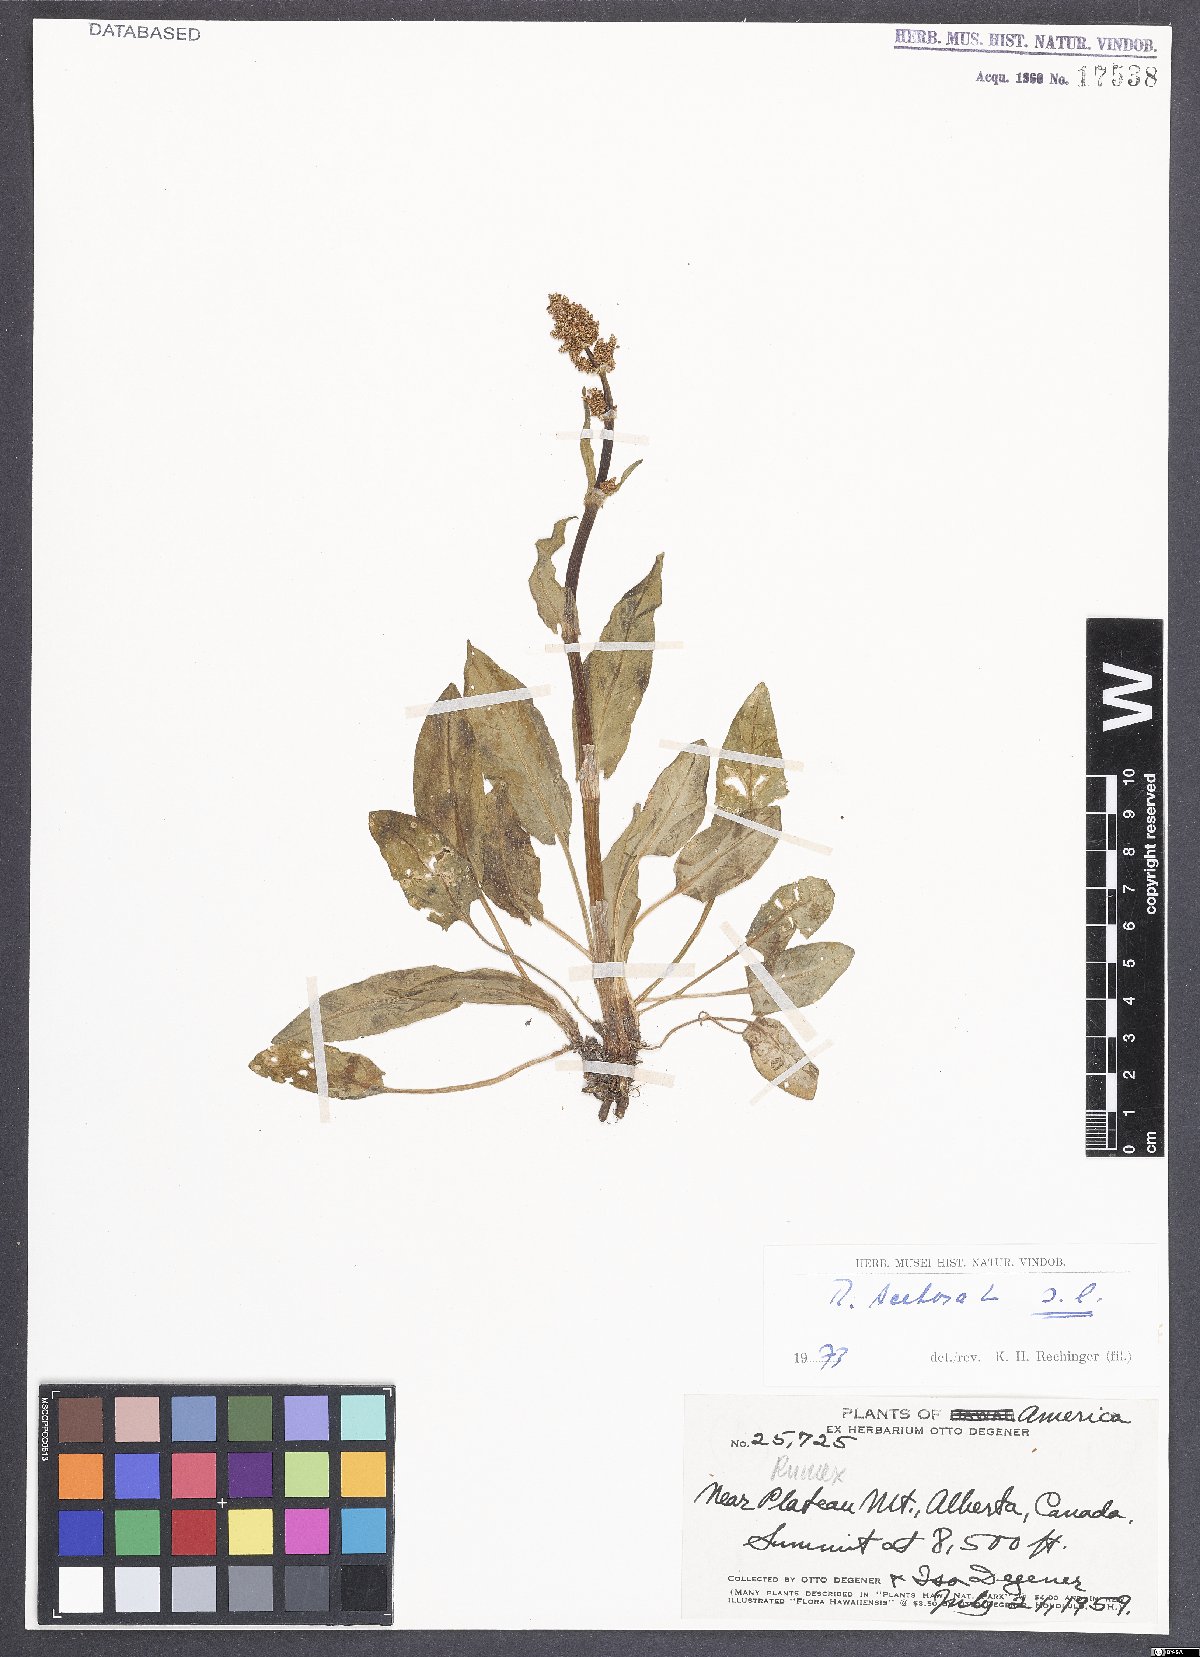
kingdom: Plantae
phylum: Tracheophyta
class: Magnoliopsida
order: Caryophyllales
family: Polygonaceae
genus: Rumex
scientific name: Rumex acetosa
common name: Garden sorrel
